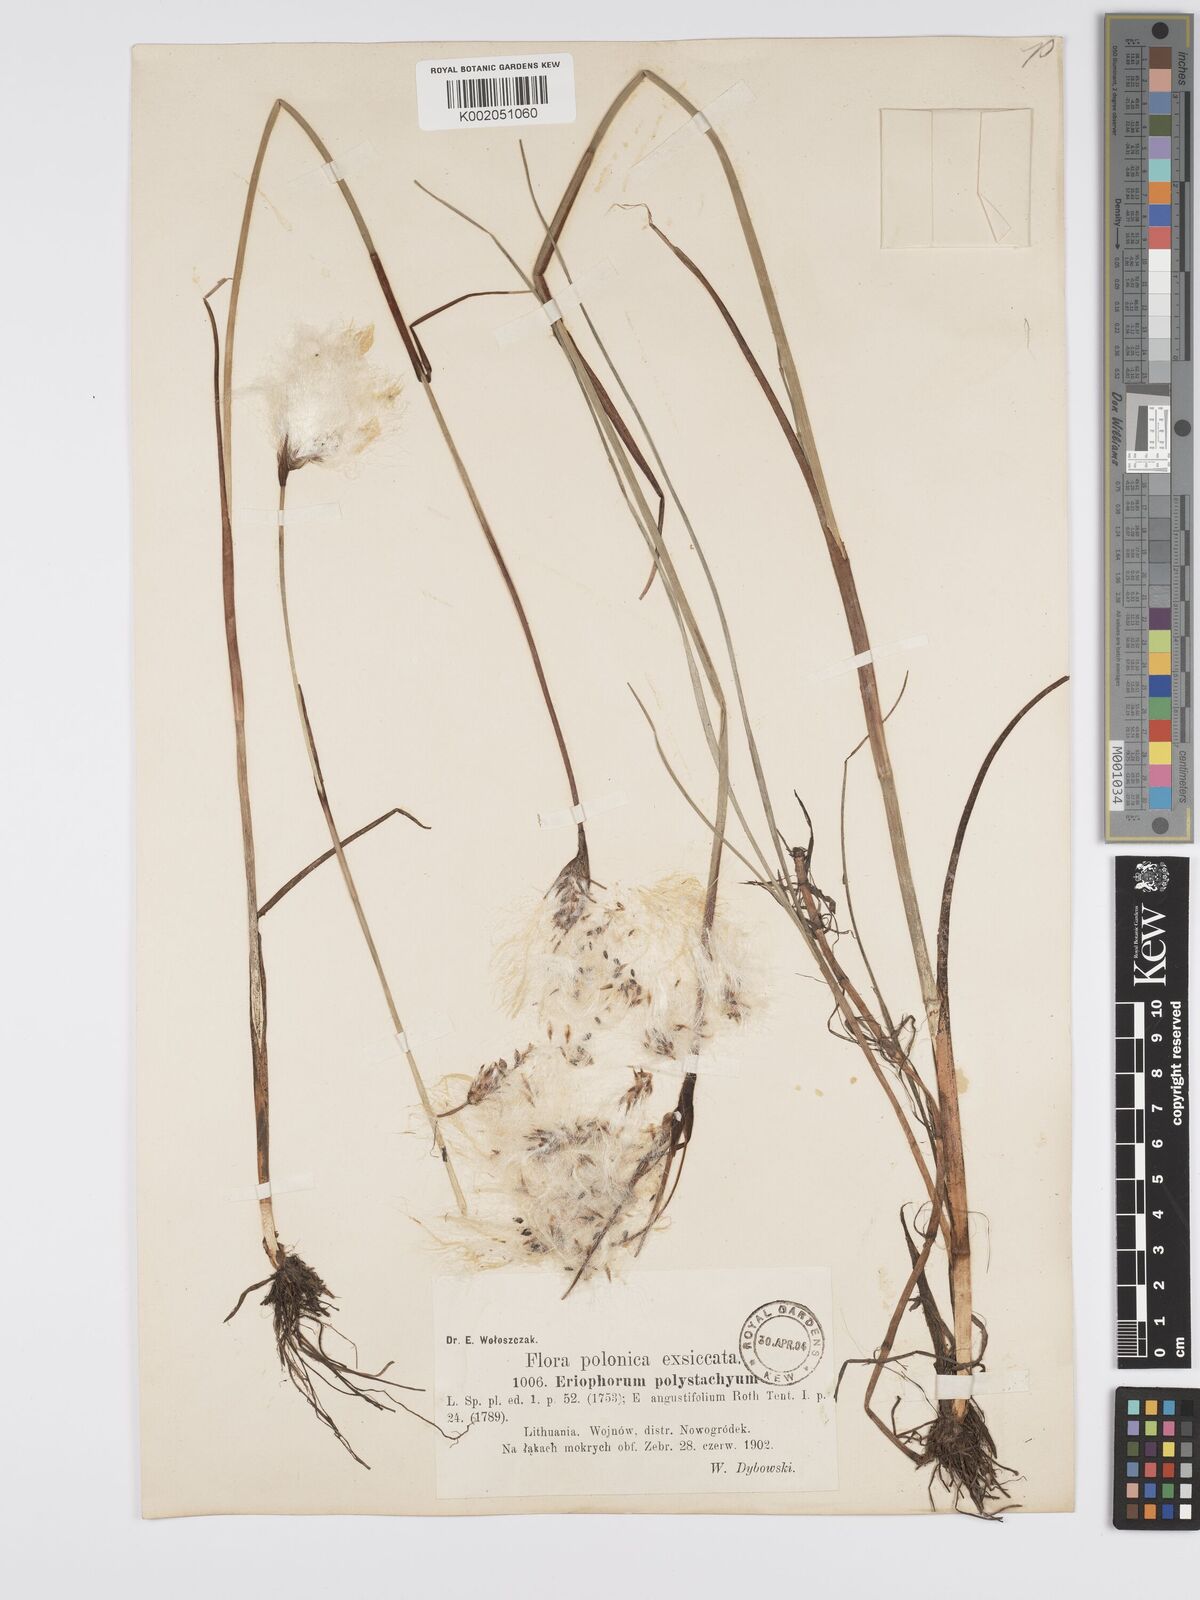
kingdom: Plantae
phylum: Tracheophyta
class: Liliopsida
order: Poales
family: Cyperaceae
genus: Eriophorum
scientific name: Eriophorum angustifolium
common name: Common cottongrass
